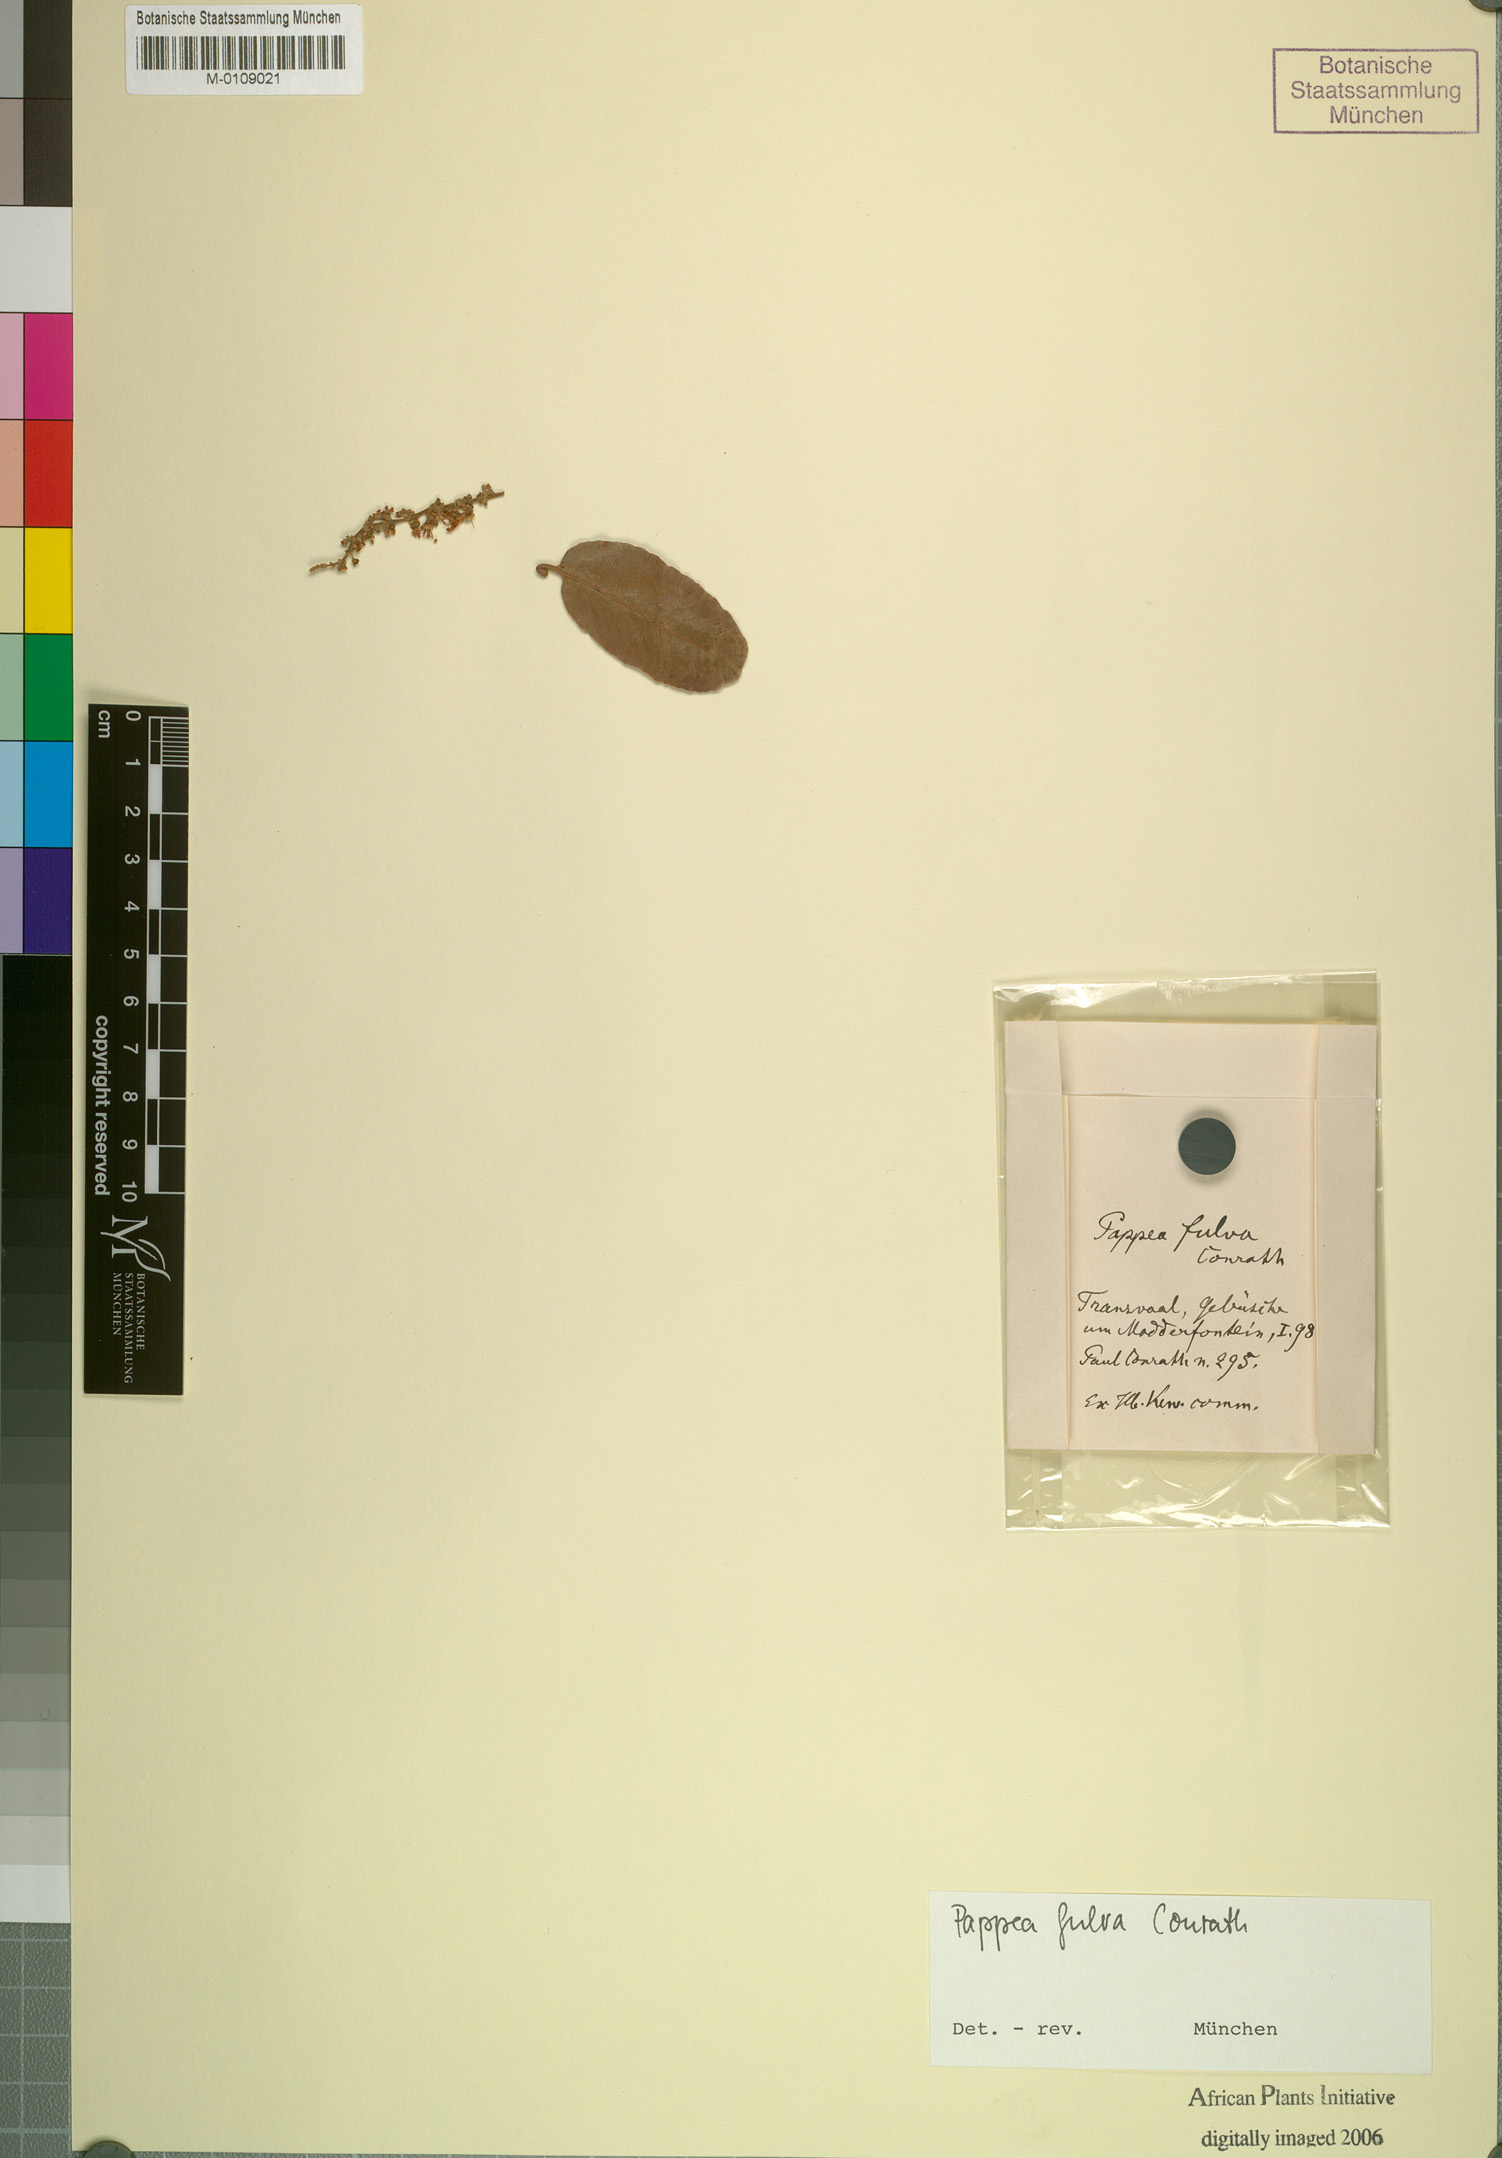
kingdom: Plantae
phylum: Tracheophyta
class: Magnoliopsida
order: Sapindales
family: Sapindaceae
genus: Pappea
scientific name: Pappea capensis
